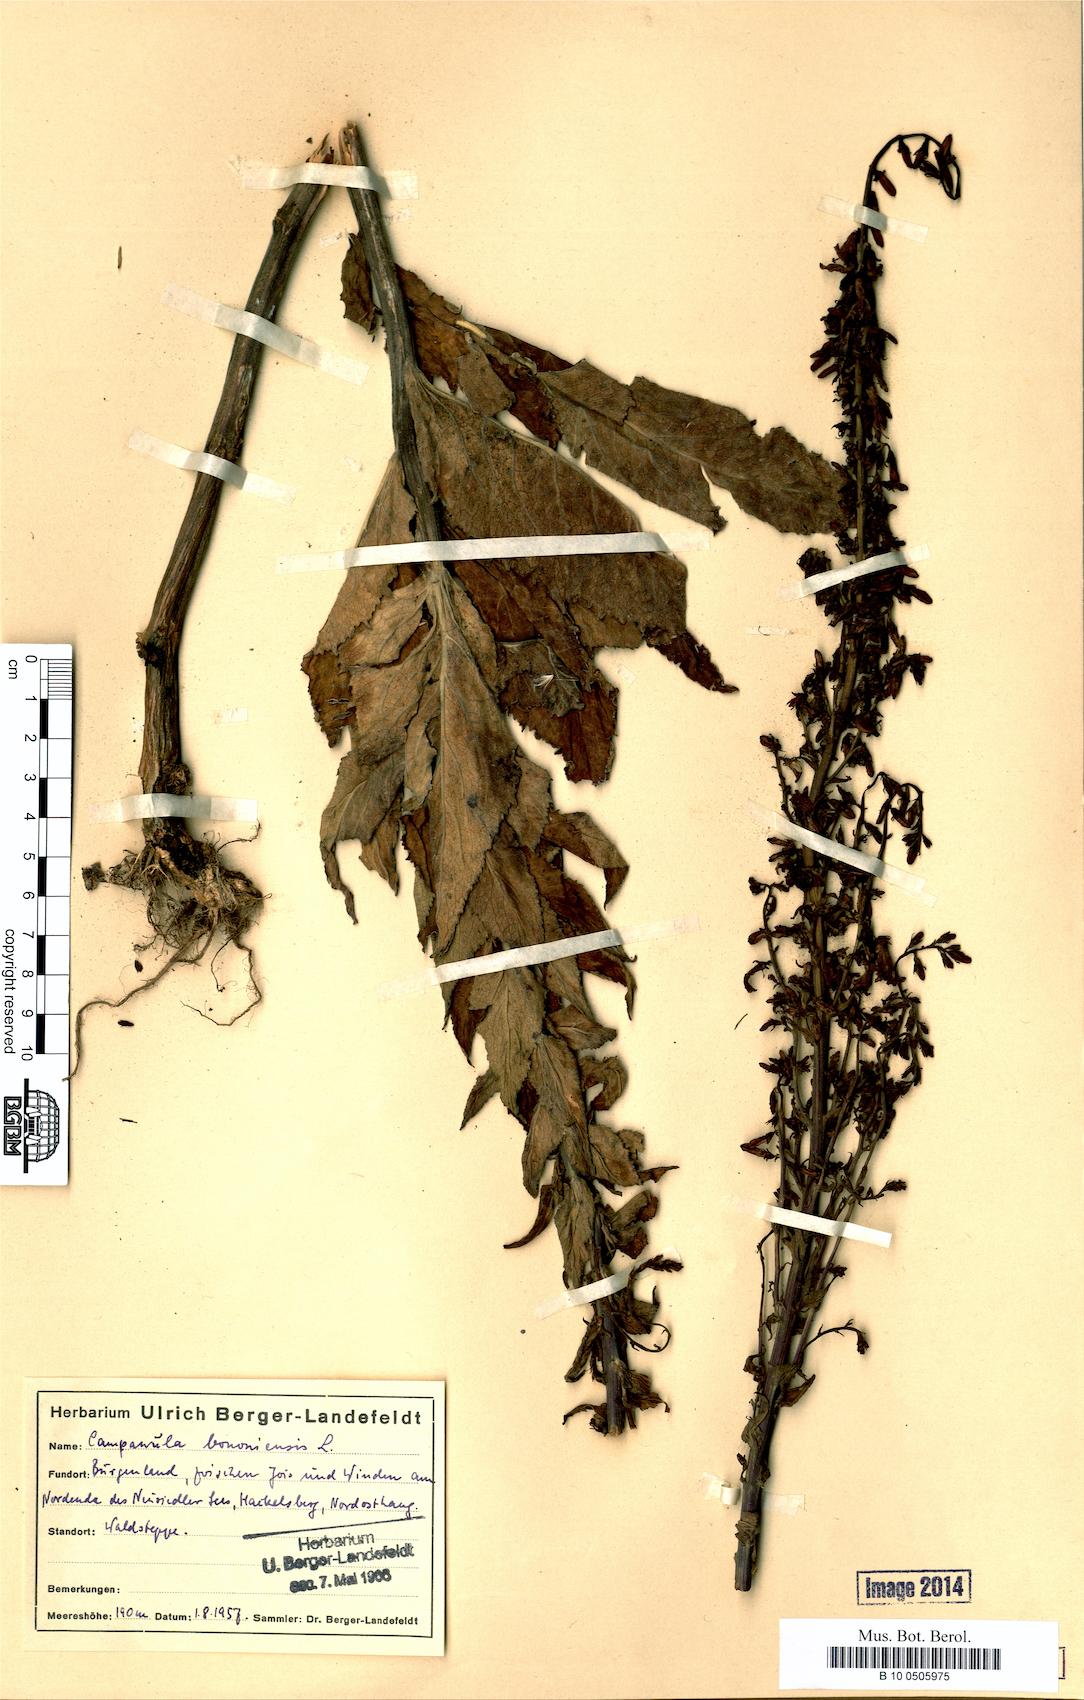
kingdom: Plantae
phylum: Tracheophyta
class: Magnoliopsida
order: Asterales
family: Campanulaceae
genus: Campanula
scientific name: Campanula bononiensis
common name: Pale bellflower
